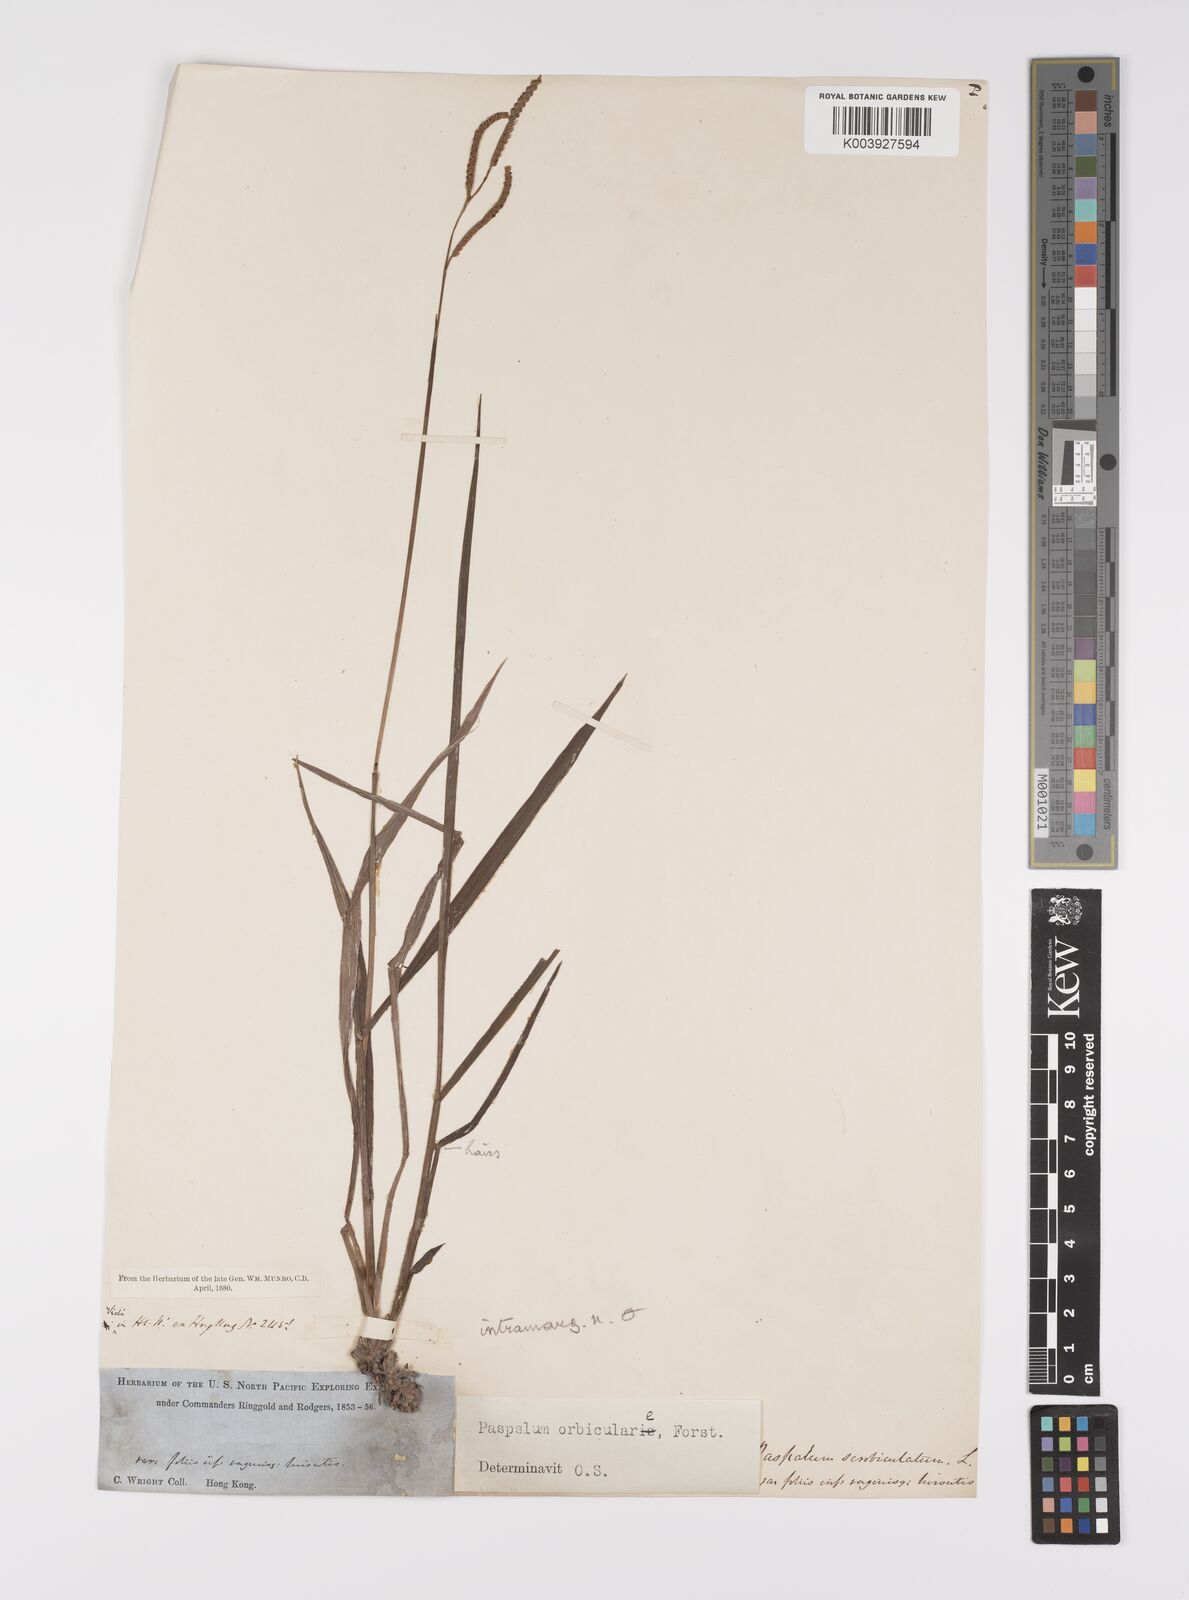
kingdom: Plantae
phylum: Tracheophyta
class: Liliopsida
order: Poales
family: Poaceae
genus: Paspalum
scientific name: Paspalum scrobiculatum
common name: Kodo millet
